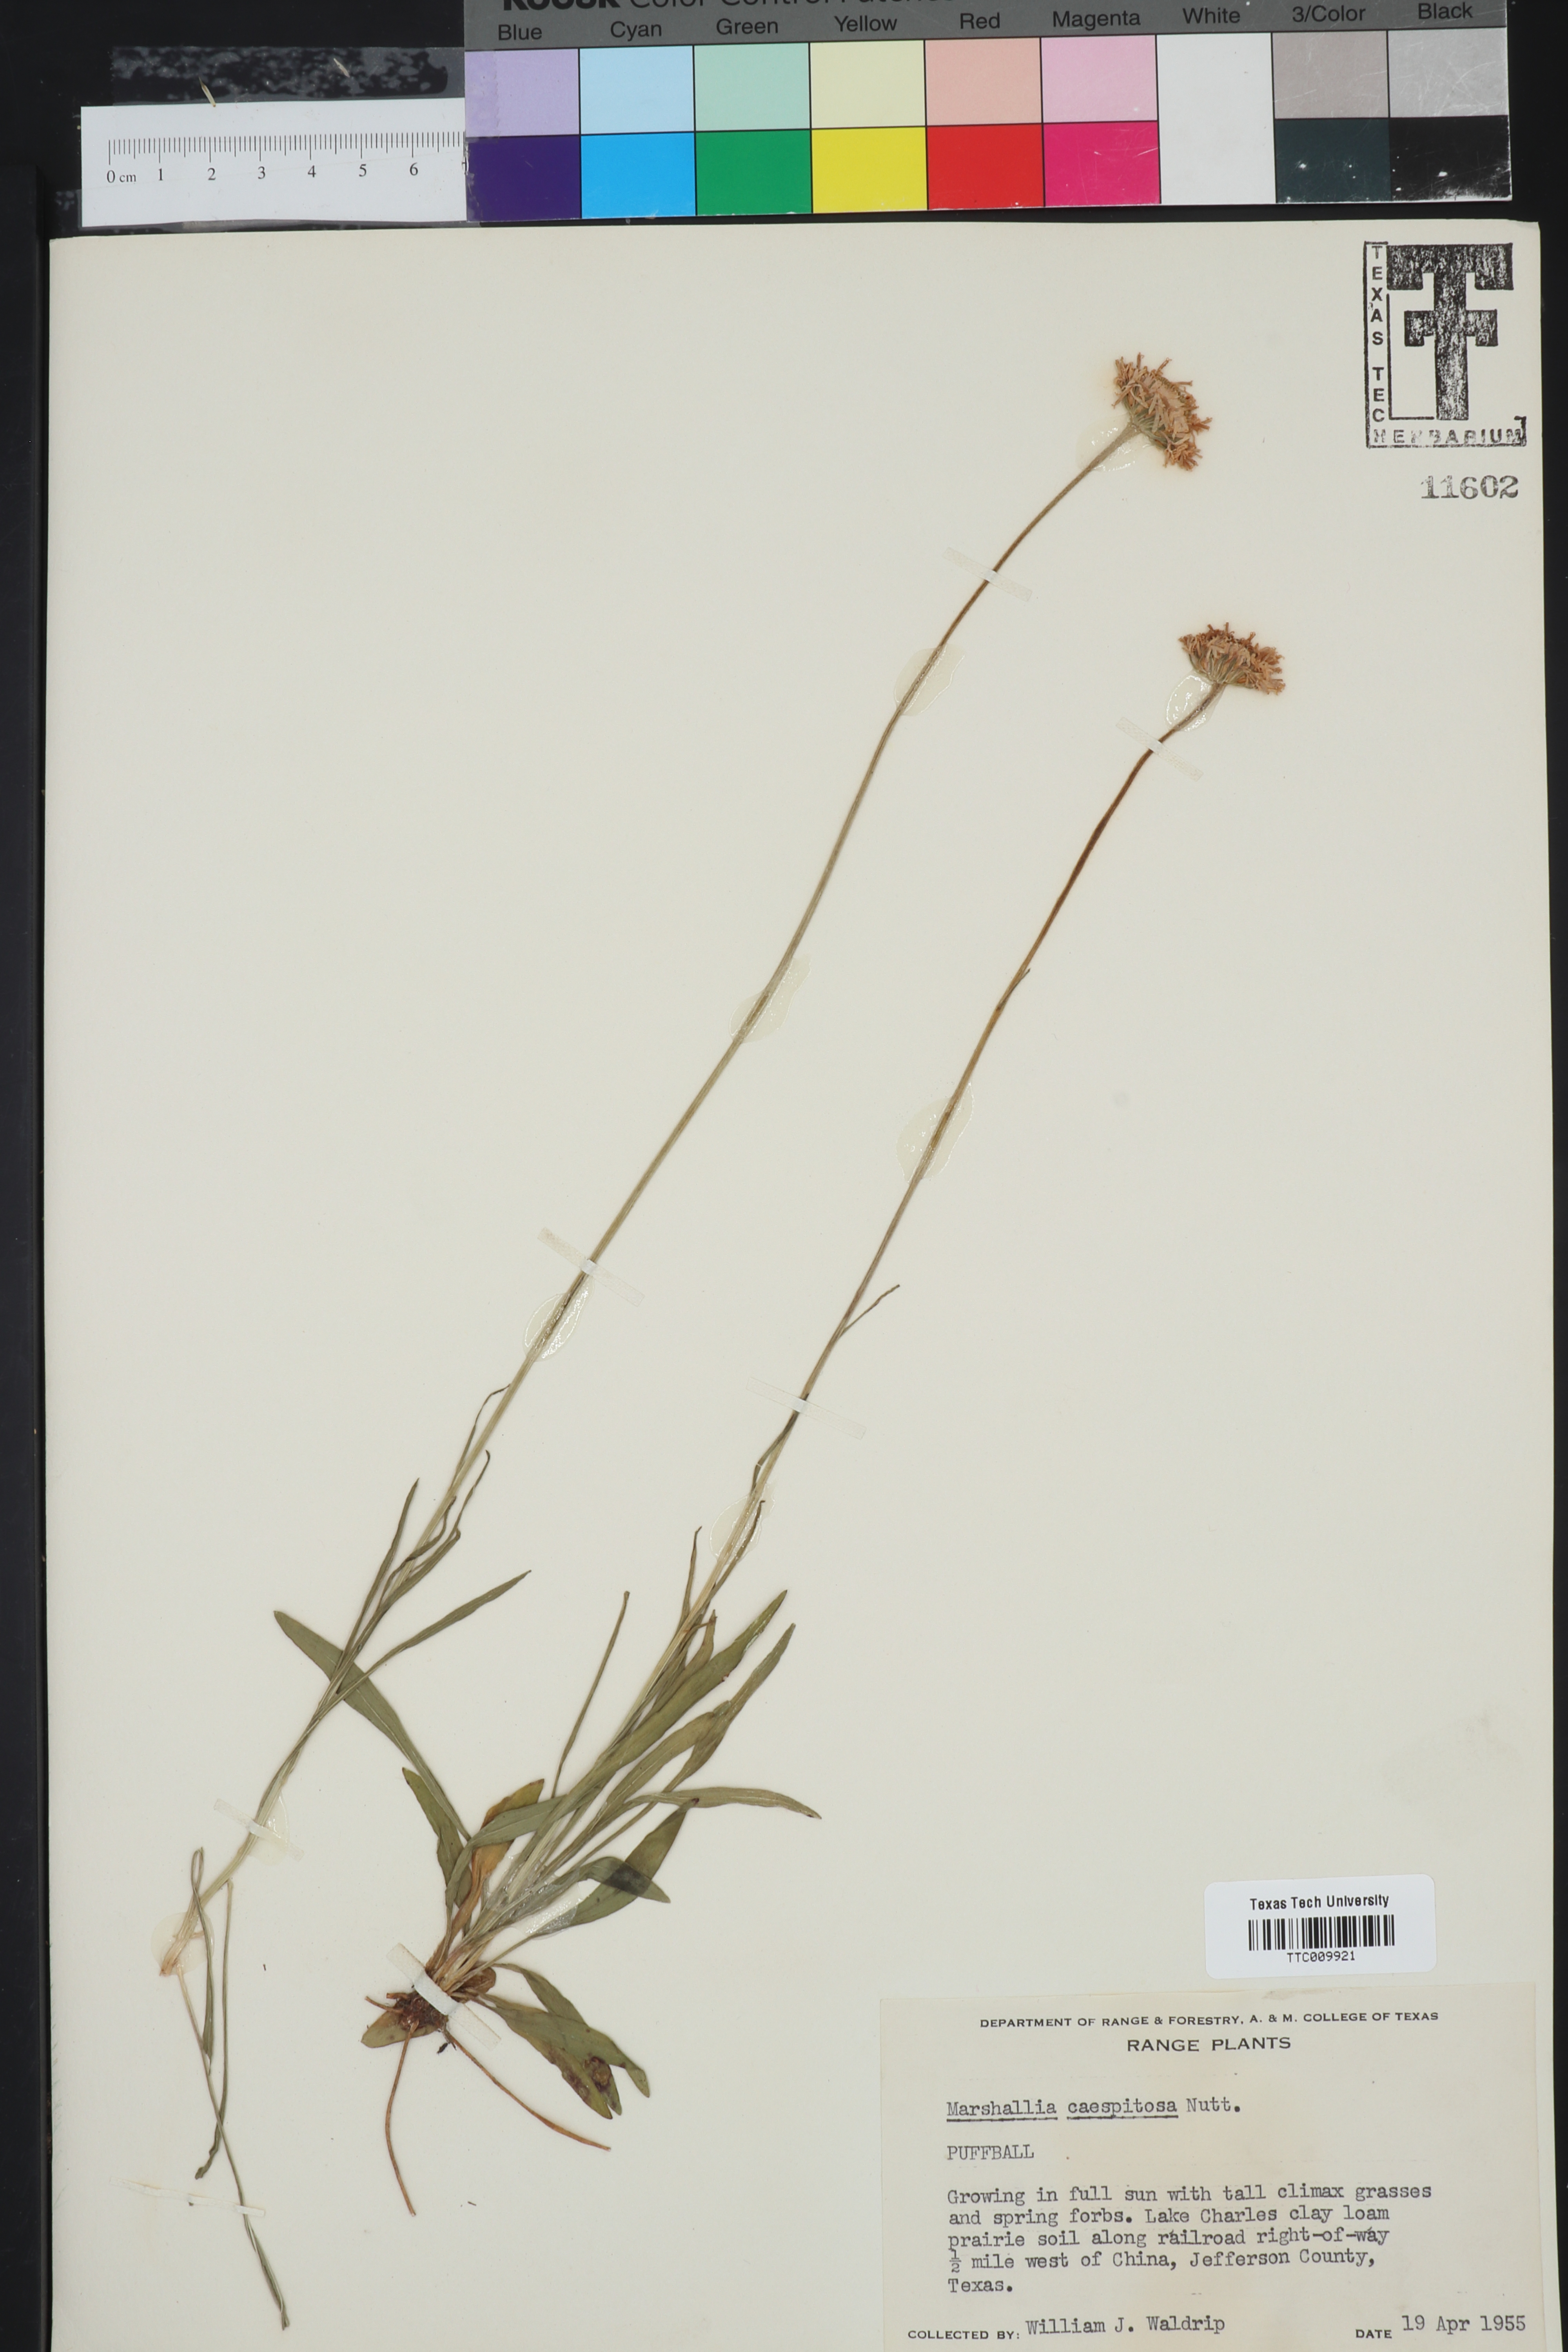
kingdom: Plantae
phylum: Tracheophyta
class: Magnoliopsida
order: Asterales
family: Asteraceae
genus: Marshallia
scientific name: Marshallia caespitosa
